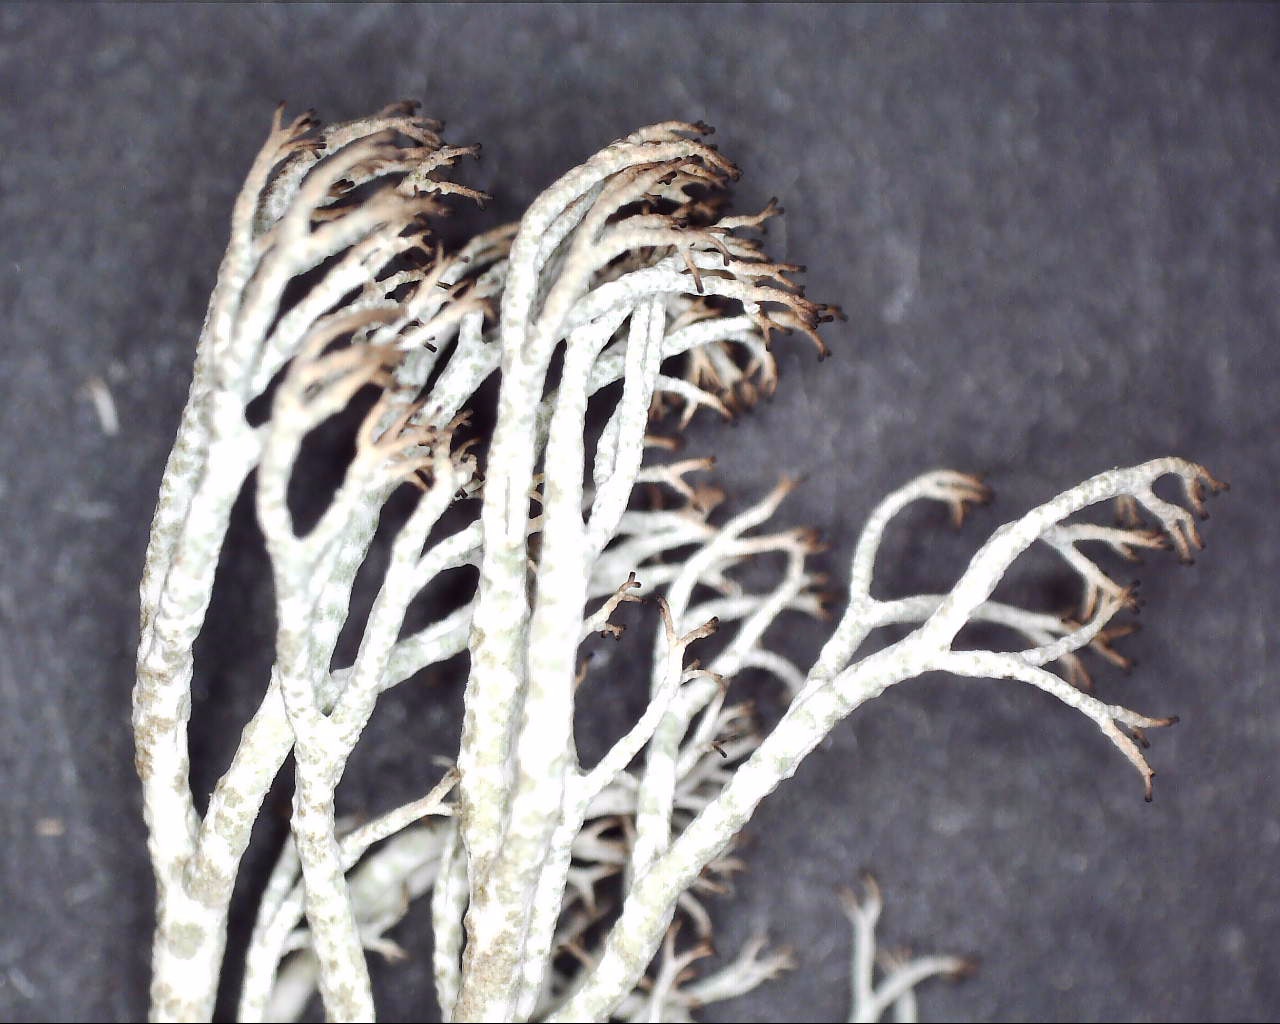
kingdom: Fungi
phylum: Ascomycota
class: Lecanoromycetes
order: Lecanorales
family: Cladoniaceae
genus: Cladonia
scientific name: Cladonia ciliata
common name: spinkel rensdyrlav
